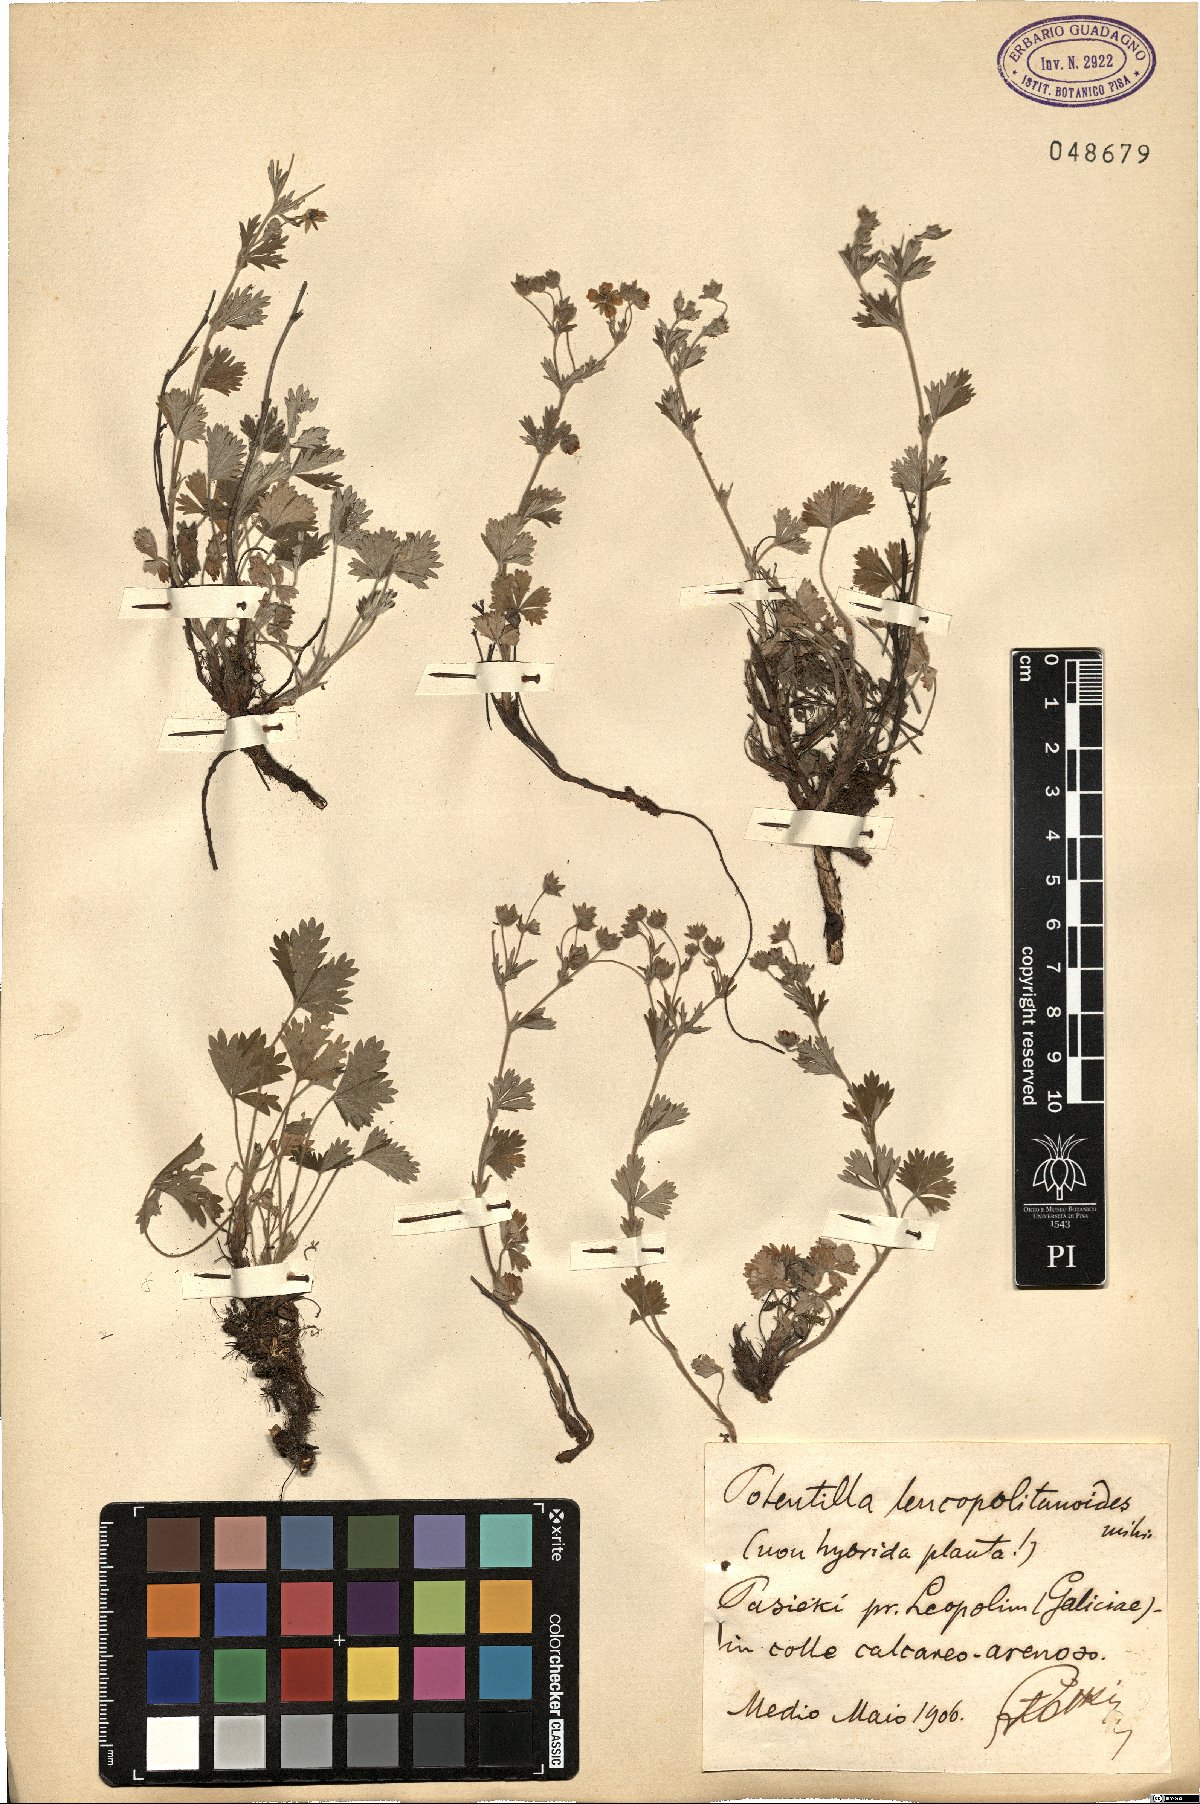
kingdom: Plantae
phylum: Tracheophyta
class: Magnoliopsida
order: Rosales
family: Rosaceae
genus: Potentilla
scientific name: Potentilla thyrsiflora
